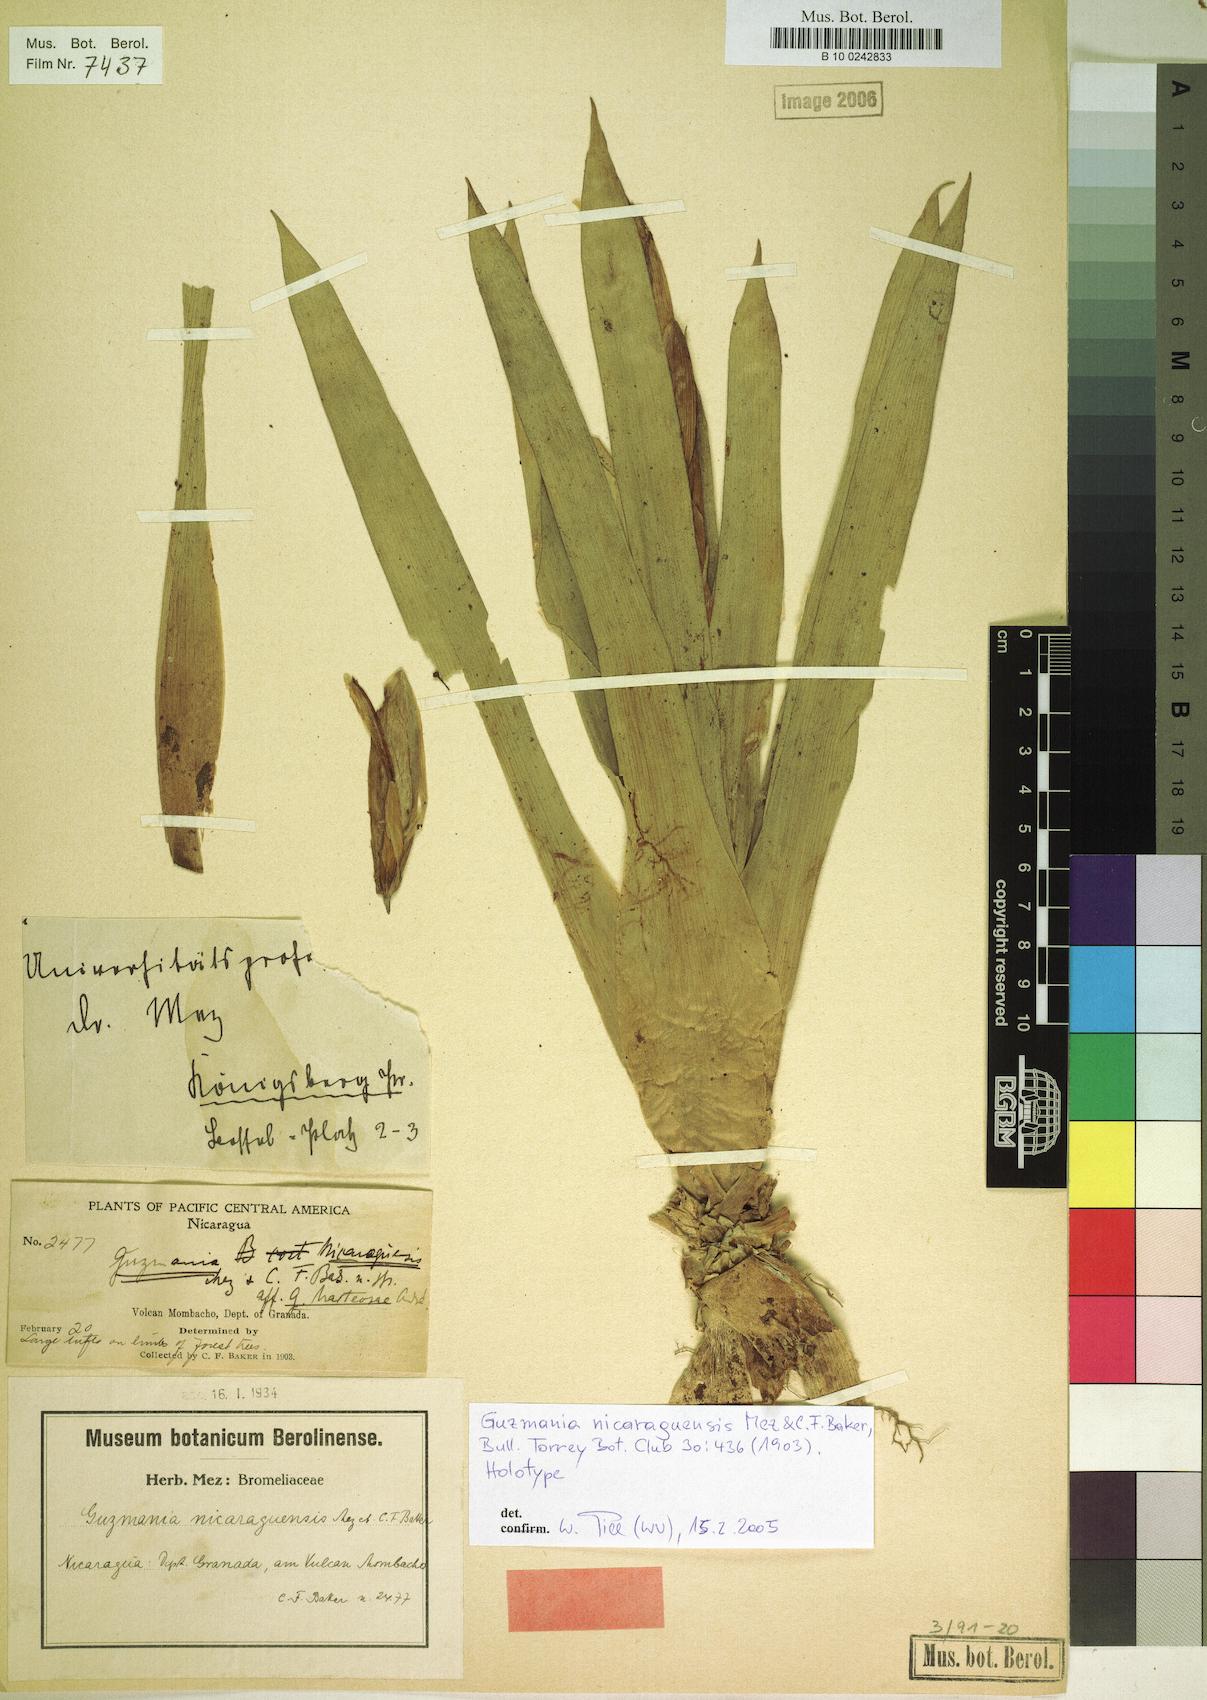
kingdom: Plantae
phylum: Tracheophyta
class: Liliopsida
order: Poales
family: Bromeliaceae
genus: Guzmania
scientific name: Guzmania nicaraguensis
